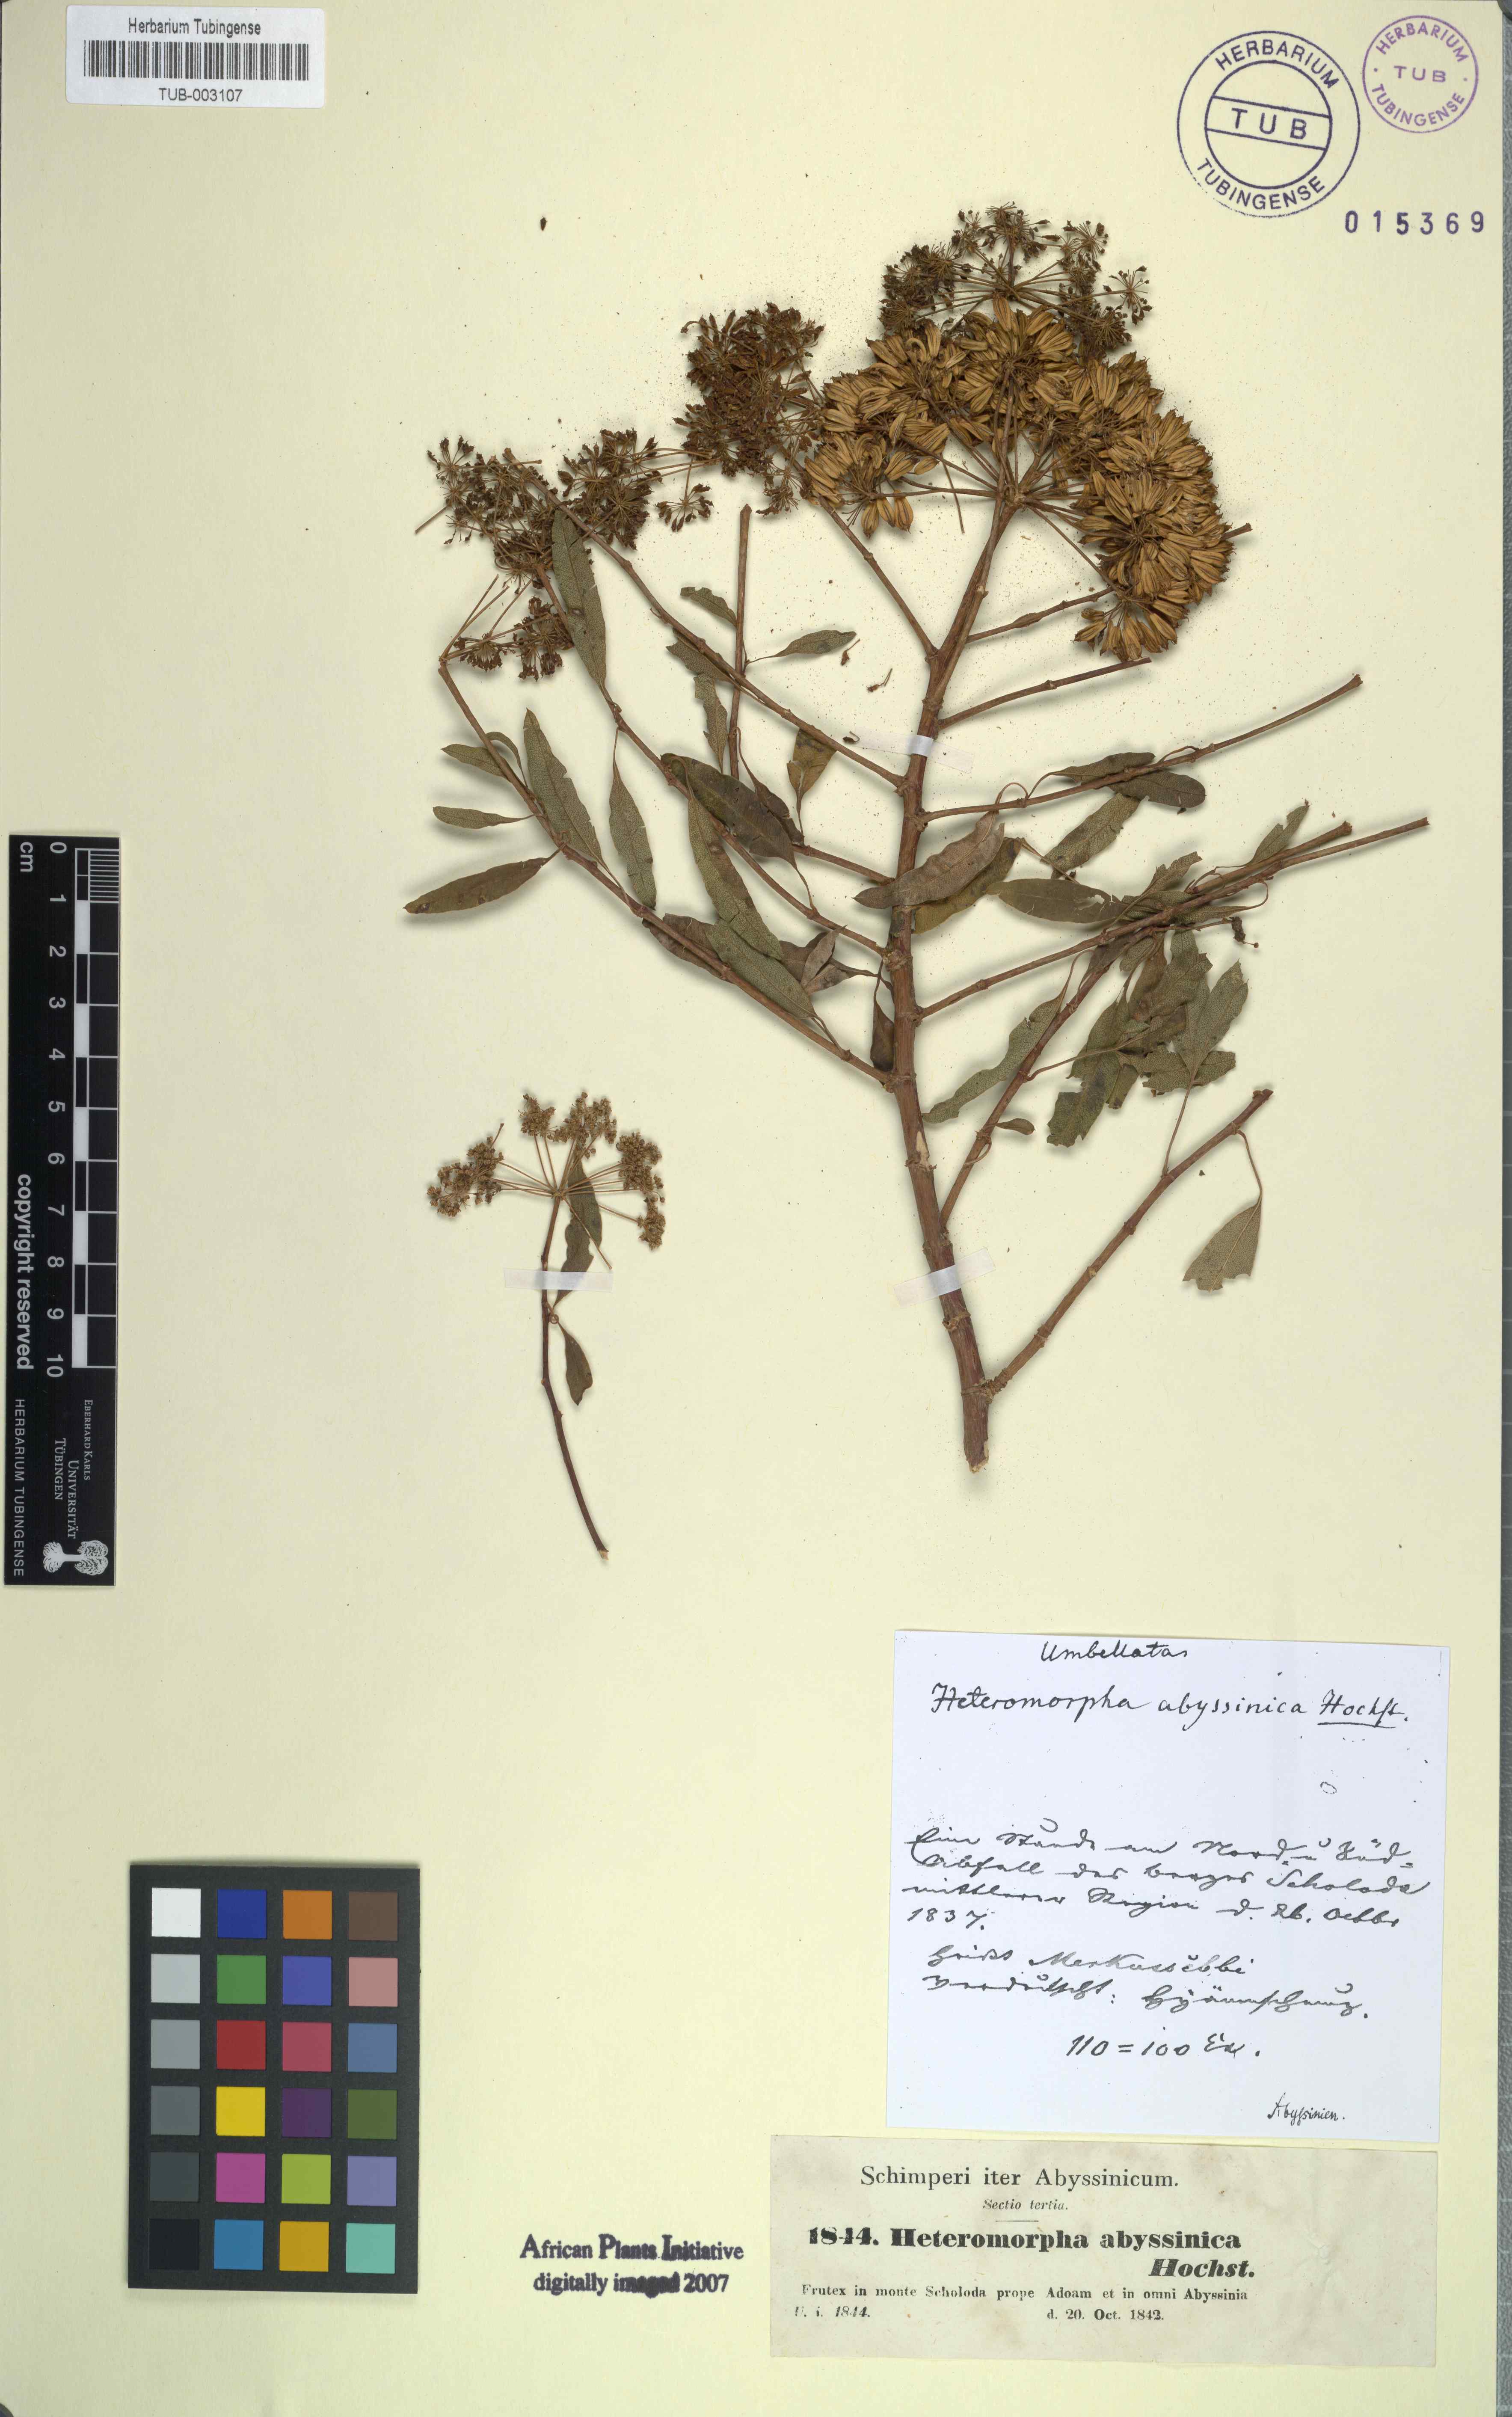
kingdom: Plantae
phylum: Tracheophyta
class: Magnoliopsida
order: Apiales
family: Apiaceae
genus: Heteromorpha
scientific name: Heteromorpha arborescens
